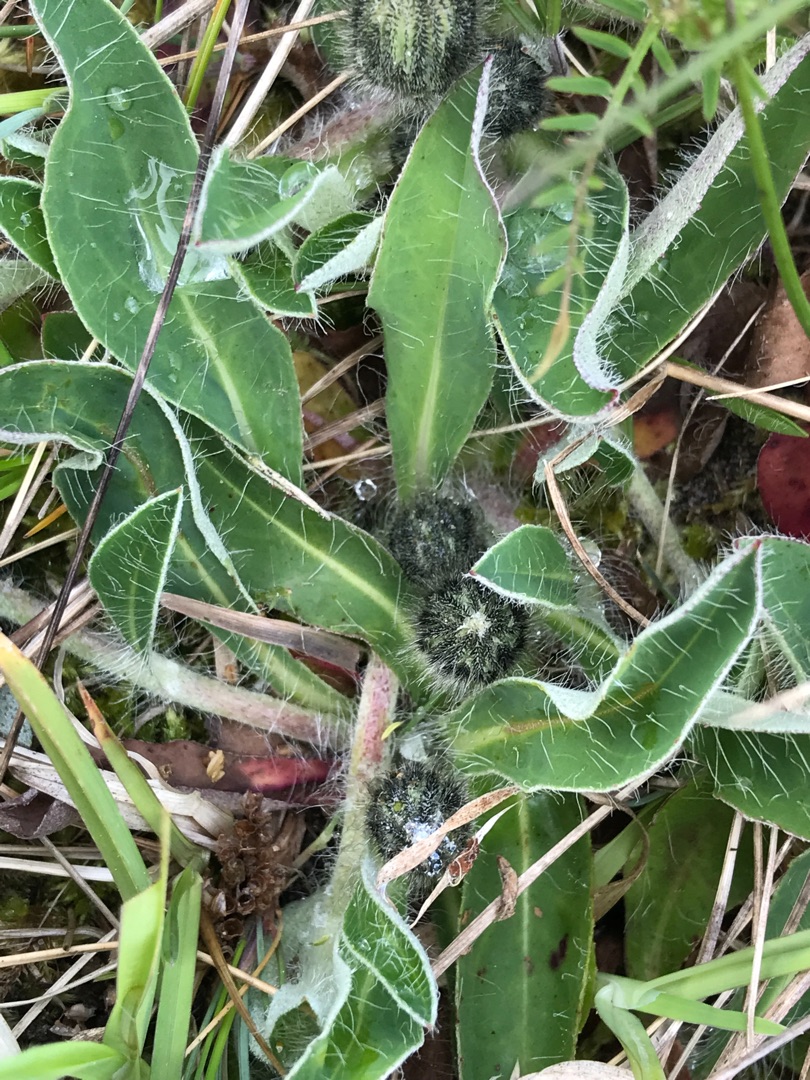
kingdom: Plantae
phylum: Tracheophyta
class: Magnoliopsida
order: Asterales
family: Asteraceae
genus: Pilosella
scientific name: Pilosella officinarum
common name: Håret høgeurt
